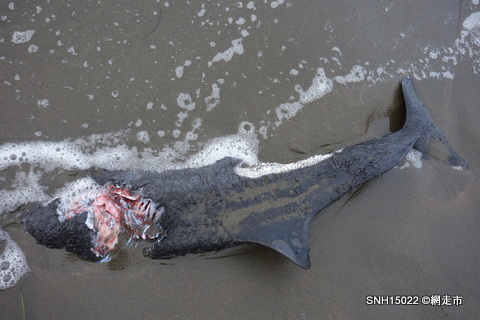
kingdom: Animalia
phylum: Chordata
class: Mammalia
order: Cetacea
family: Phocoenidae
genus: Phocoenoides
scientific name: Phocoenoides dalli
